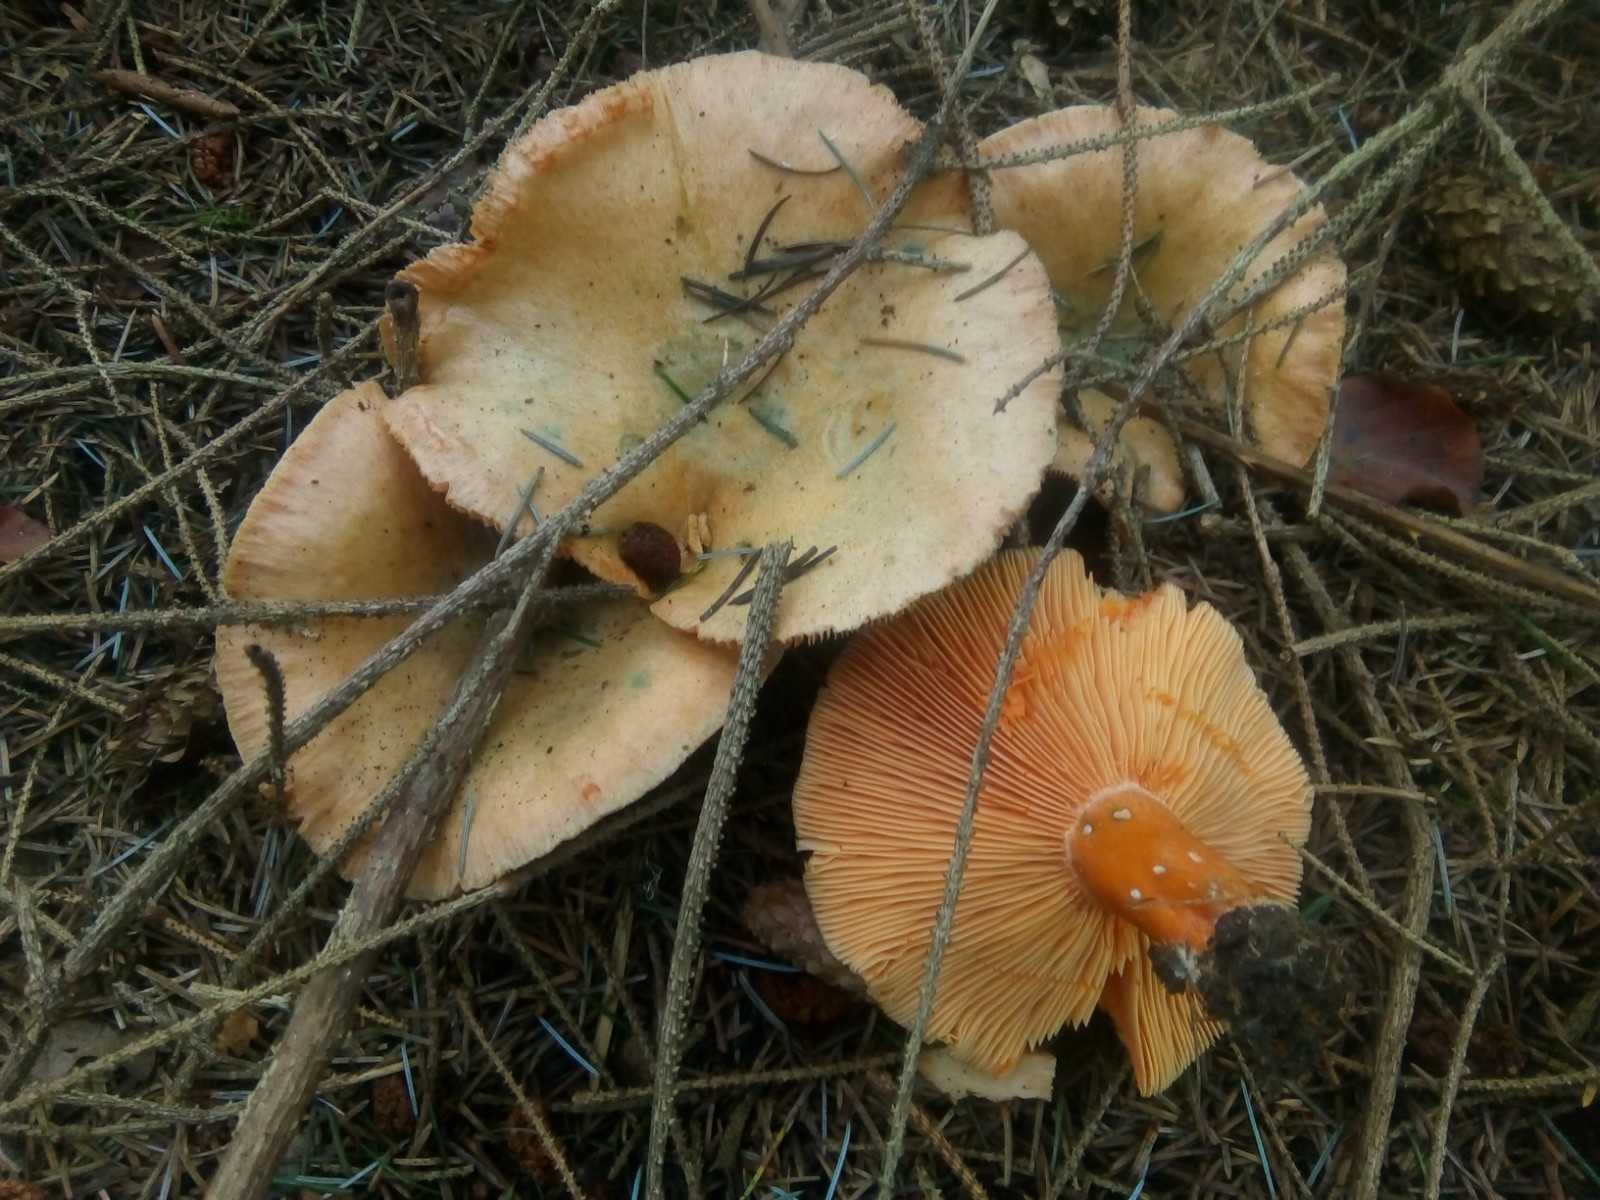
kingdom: Fungi
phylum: Basidiomycota
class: Agaricomycetes
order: Russulales
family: Russulaceae
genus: Lactarius
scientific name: Lactarius deterrimus
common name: gran-mælkehat
